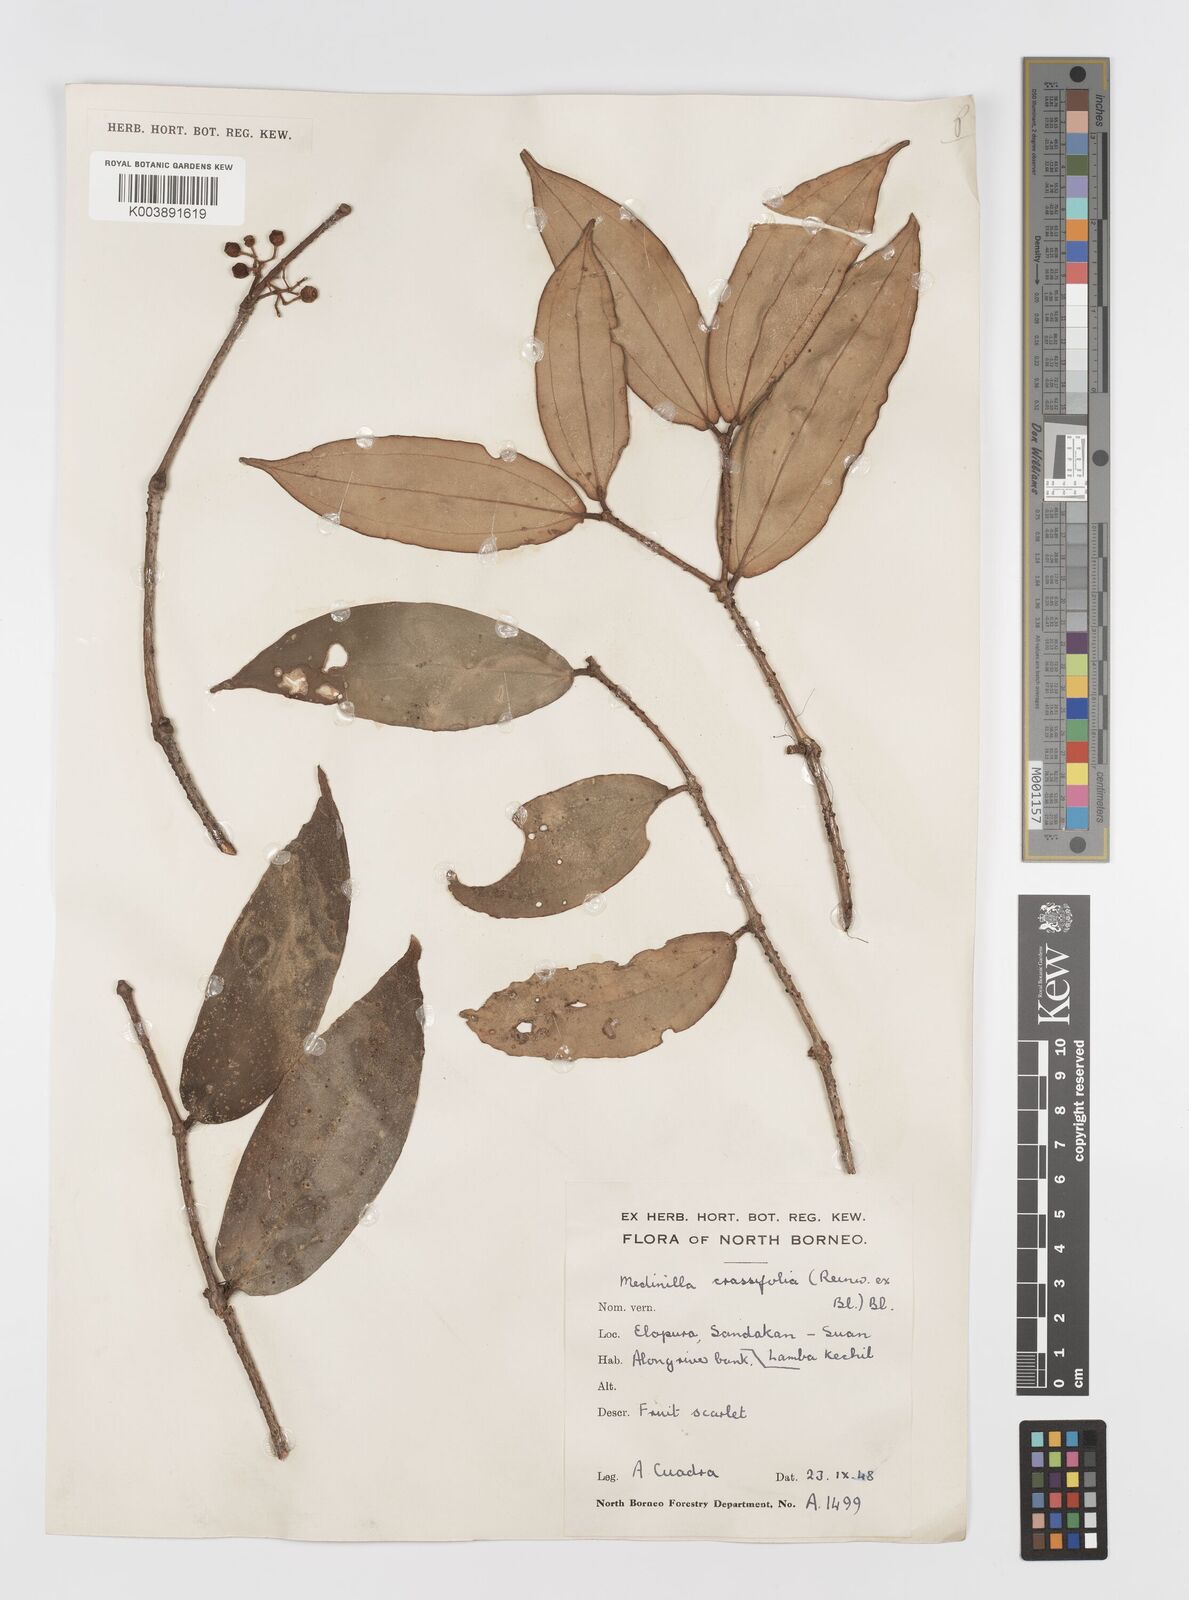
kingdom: Plantae
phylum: Tracheophyta
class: Magnoliopsida
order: Myrtales
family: Melastomataceae
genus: Medinilla
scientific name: Medinilla crassifolia
